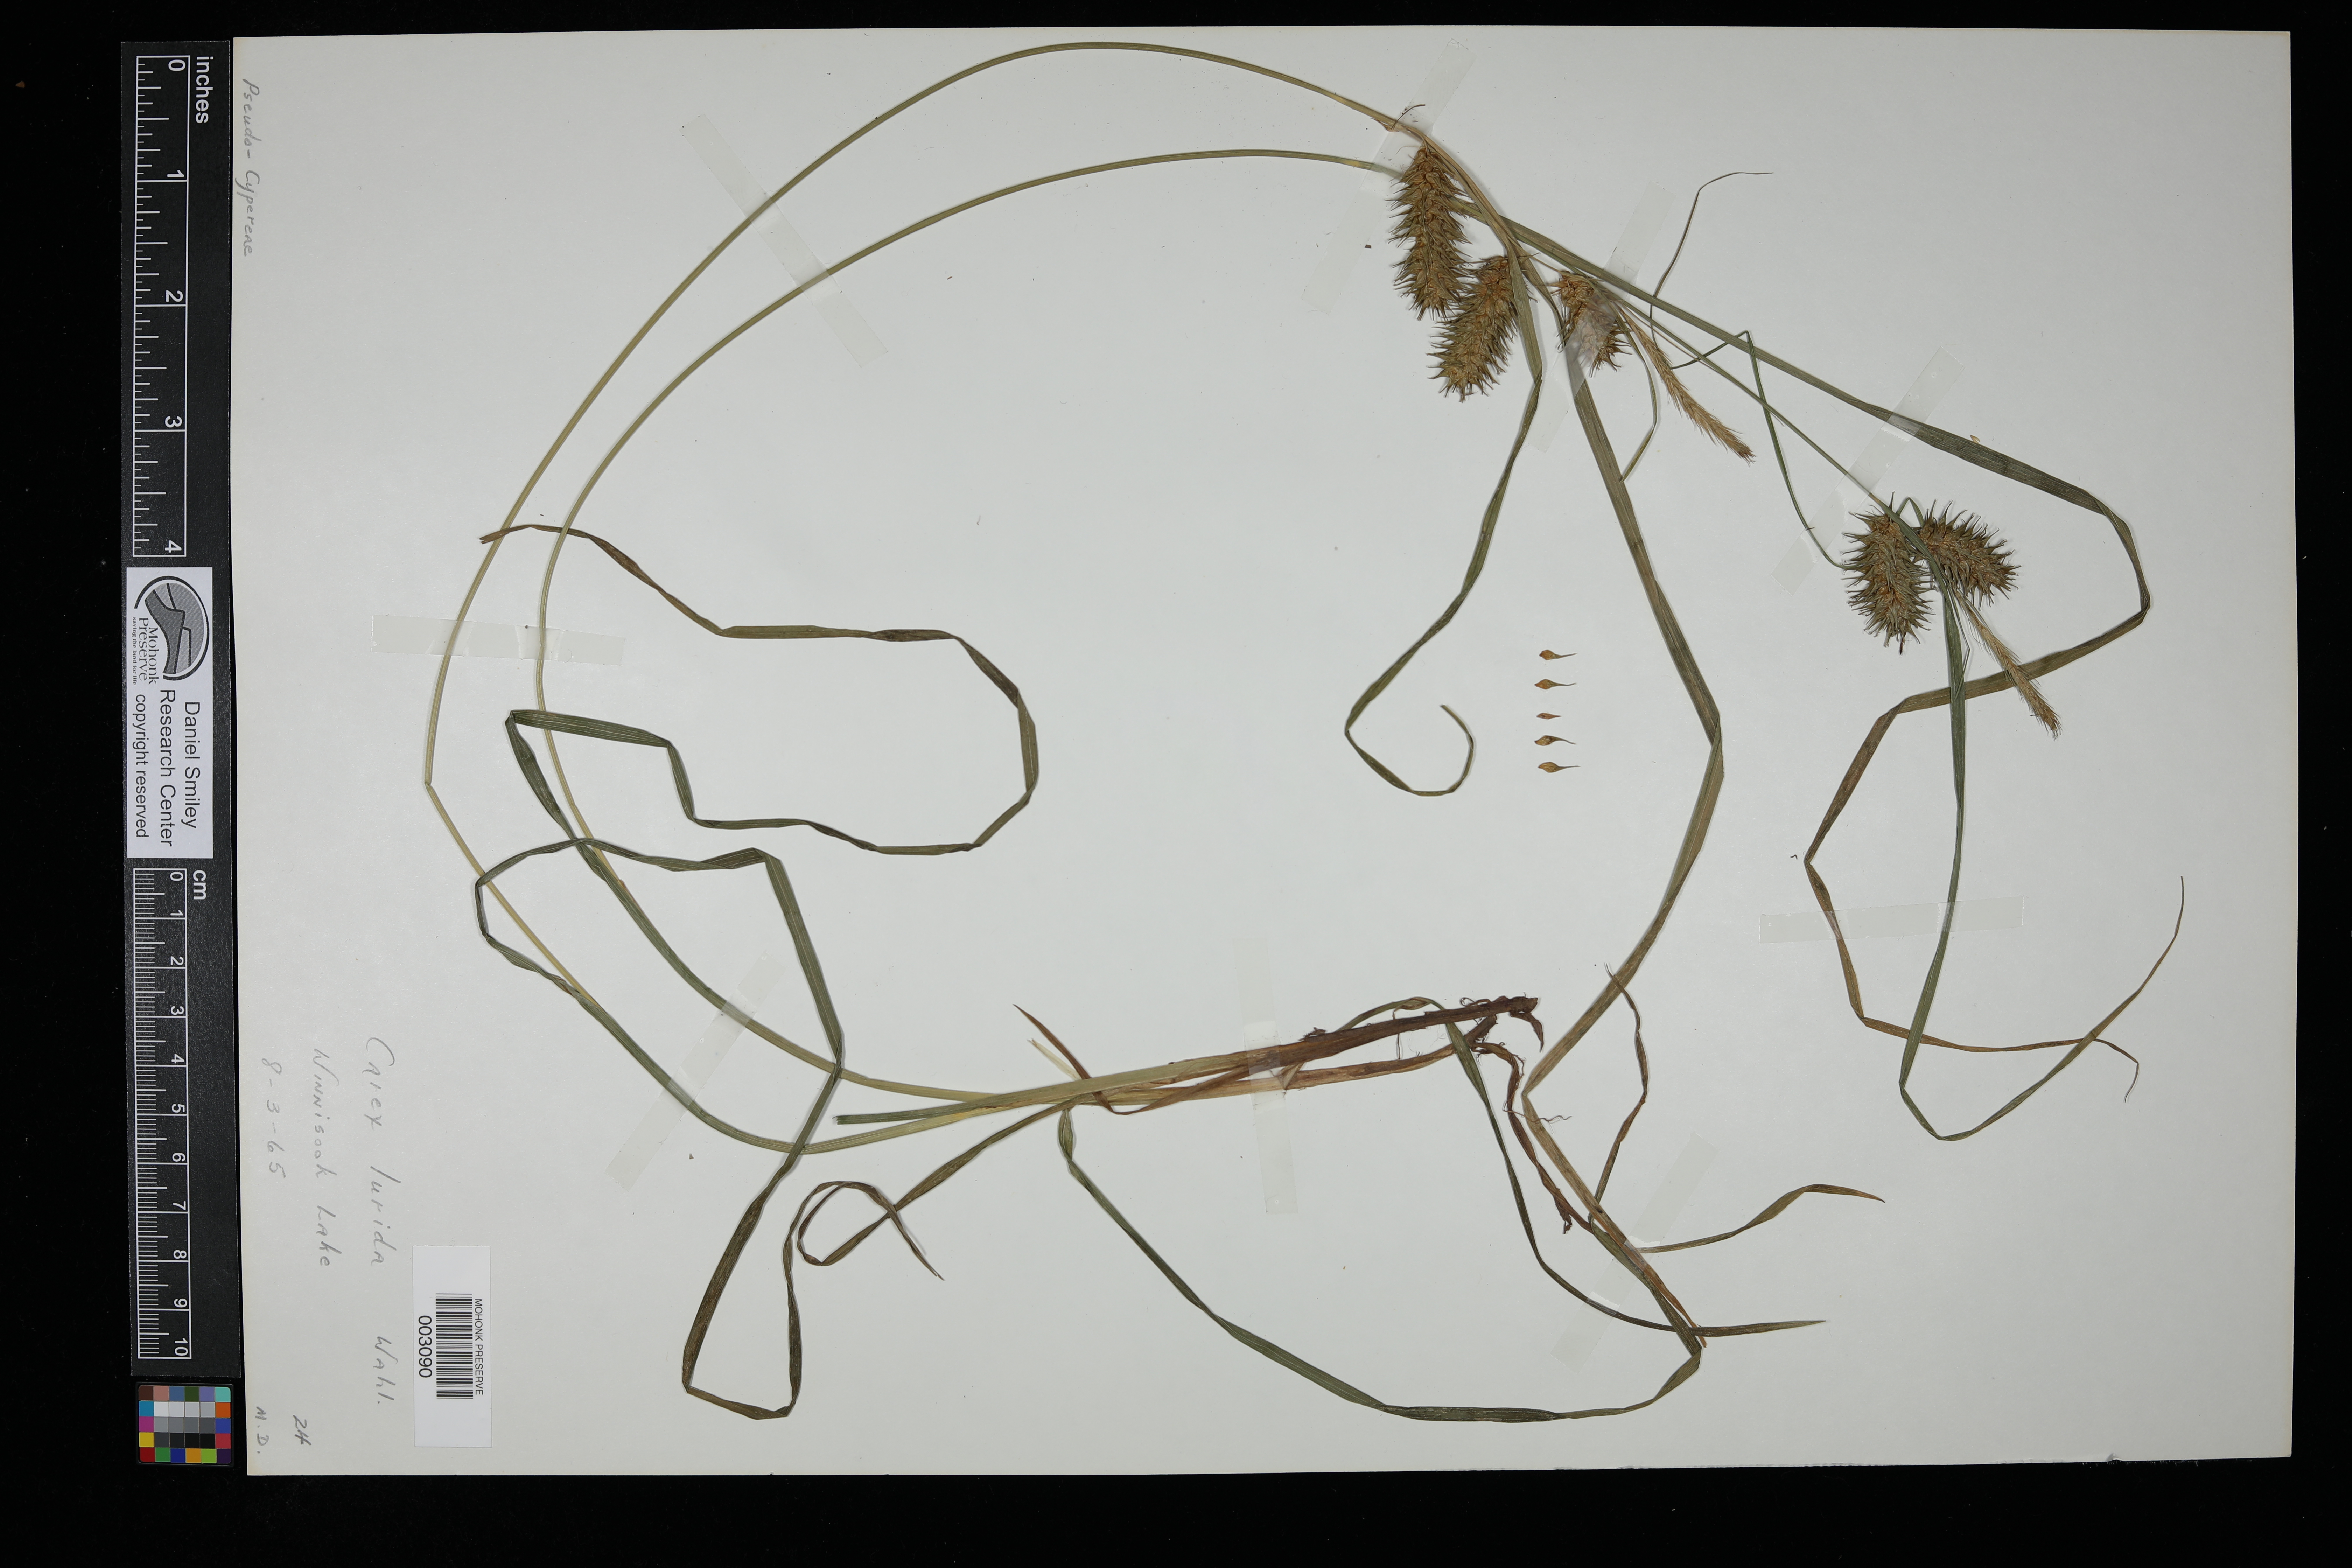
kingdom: Plantae
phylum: Tracheophyta
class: Liliopsida
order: Poales
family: Cyperaceae
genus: Carex
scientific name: Carex lurida
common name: Sallow sedge
